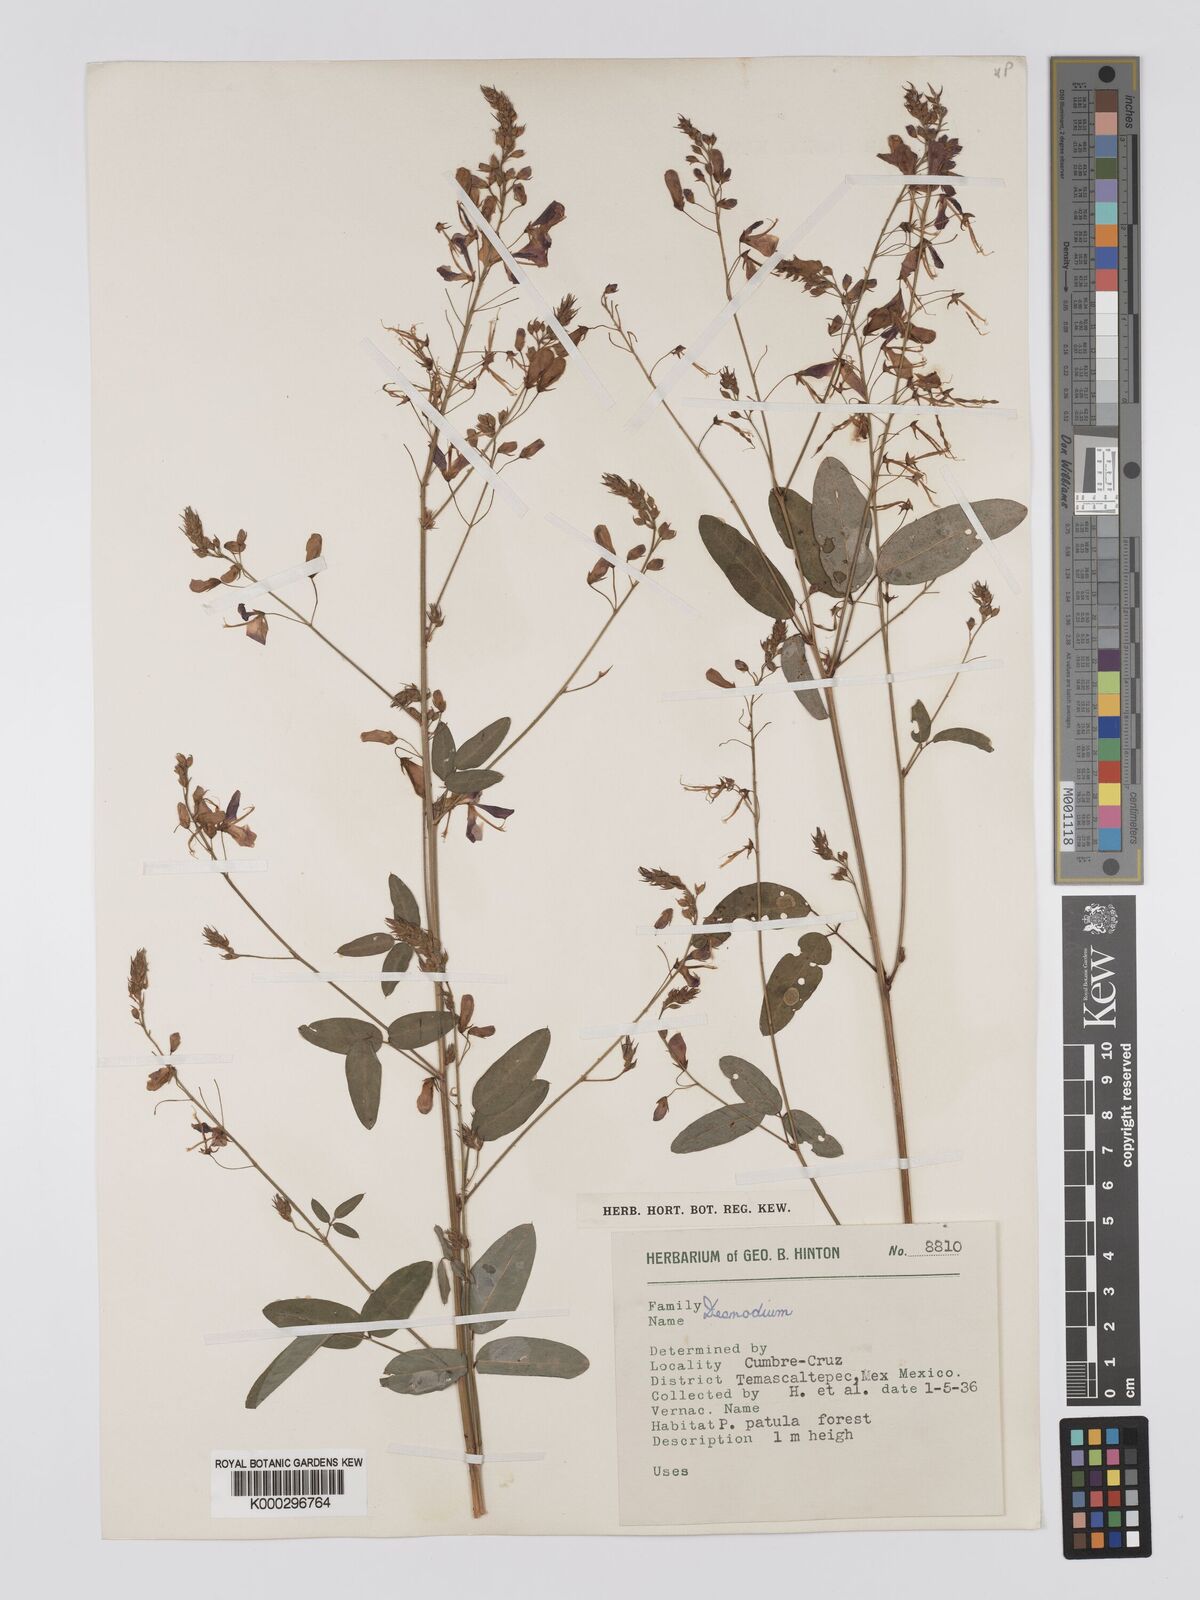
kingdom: Plantae
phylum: Tracheophyta
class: Magnoliopsida
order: Fabales
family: Fabaceae
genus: Desmodium
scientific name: Desmodium
